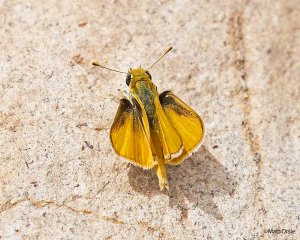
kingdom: Animalia
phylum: Arthropoda
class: Insecta
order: Lepidoptera
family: Hesperiidae
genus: Copaeodes
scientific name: Copaeodes aurantiaca
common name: Orange Skipperling
